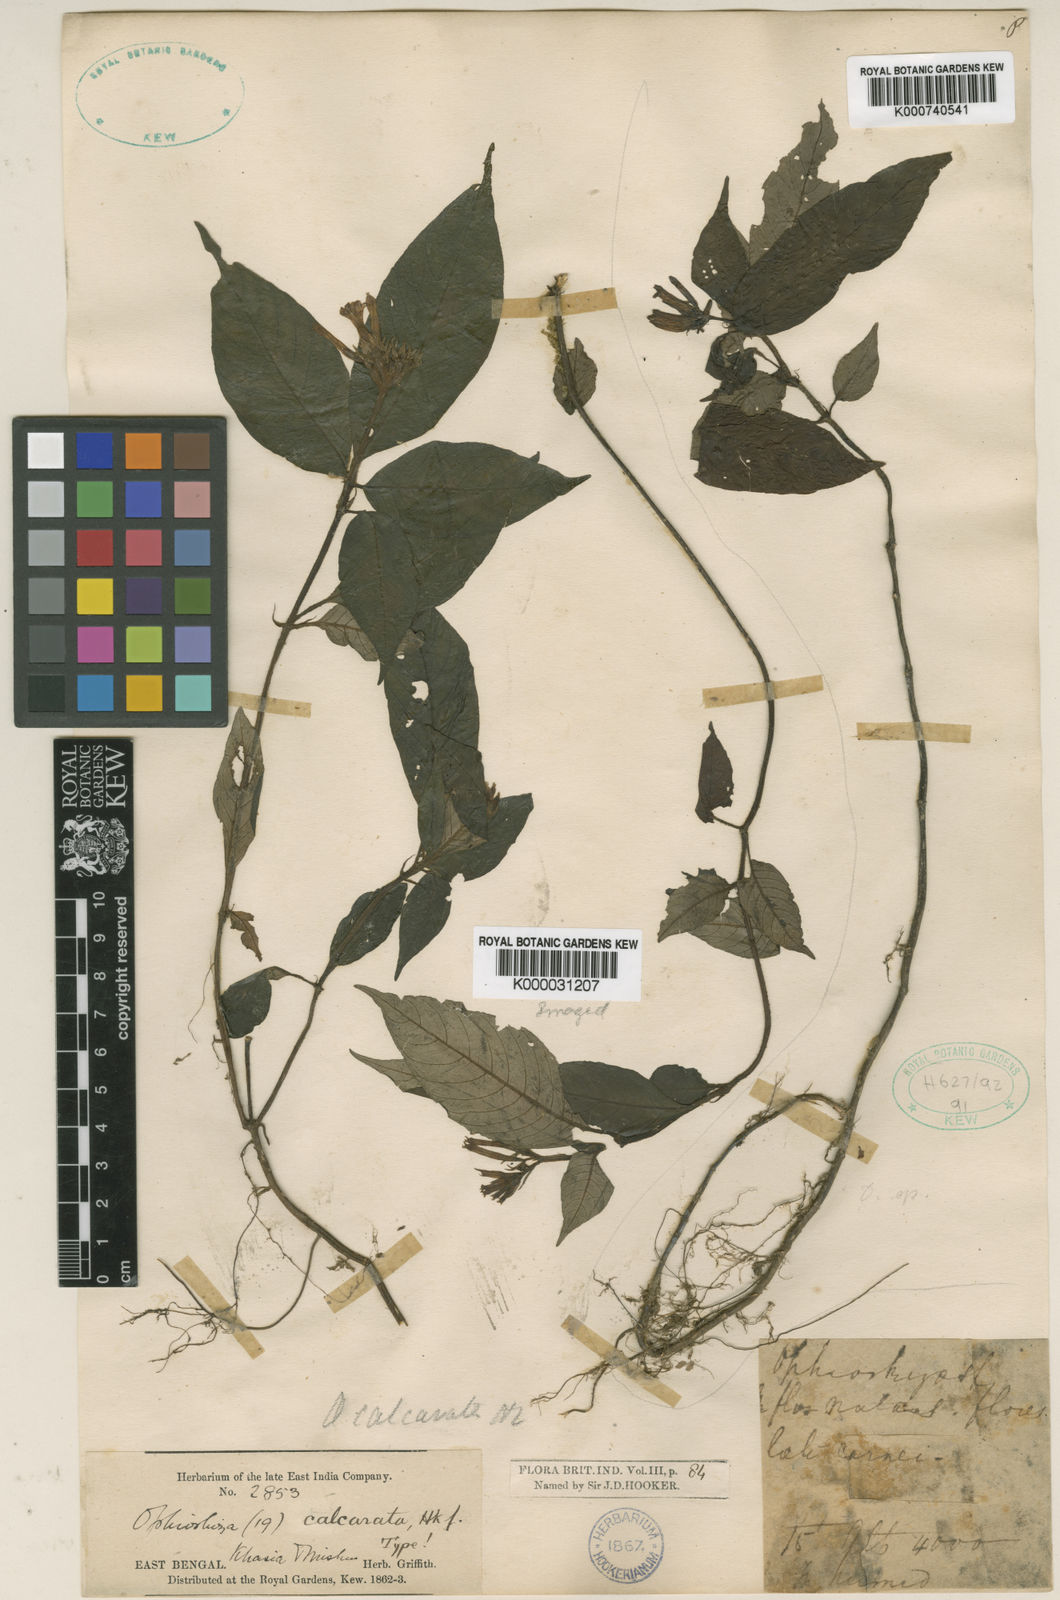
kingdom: Plantae
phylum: Tracheophyta
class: Magnoliopsida
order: Gentianales
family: Rubiaceae
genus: Ophiorrhiza
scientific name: Ophiorrhiza repens
